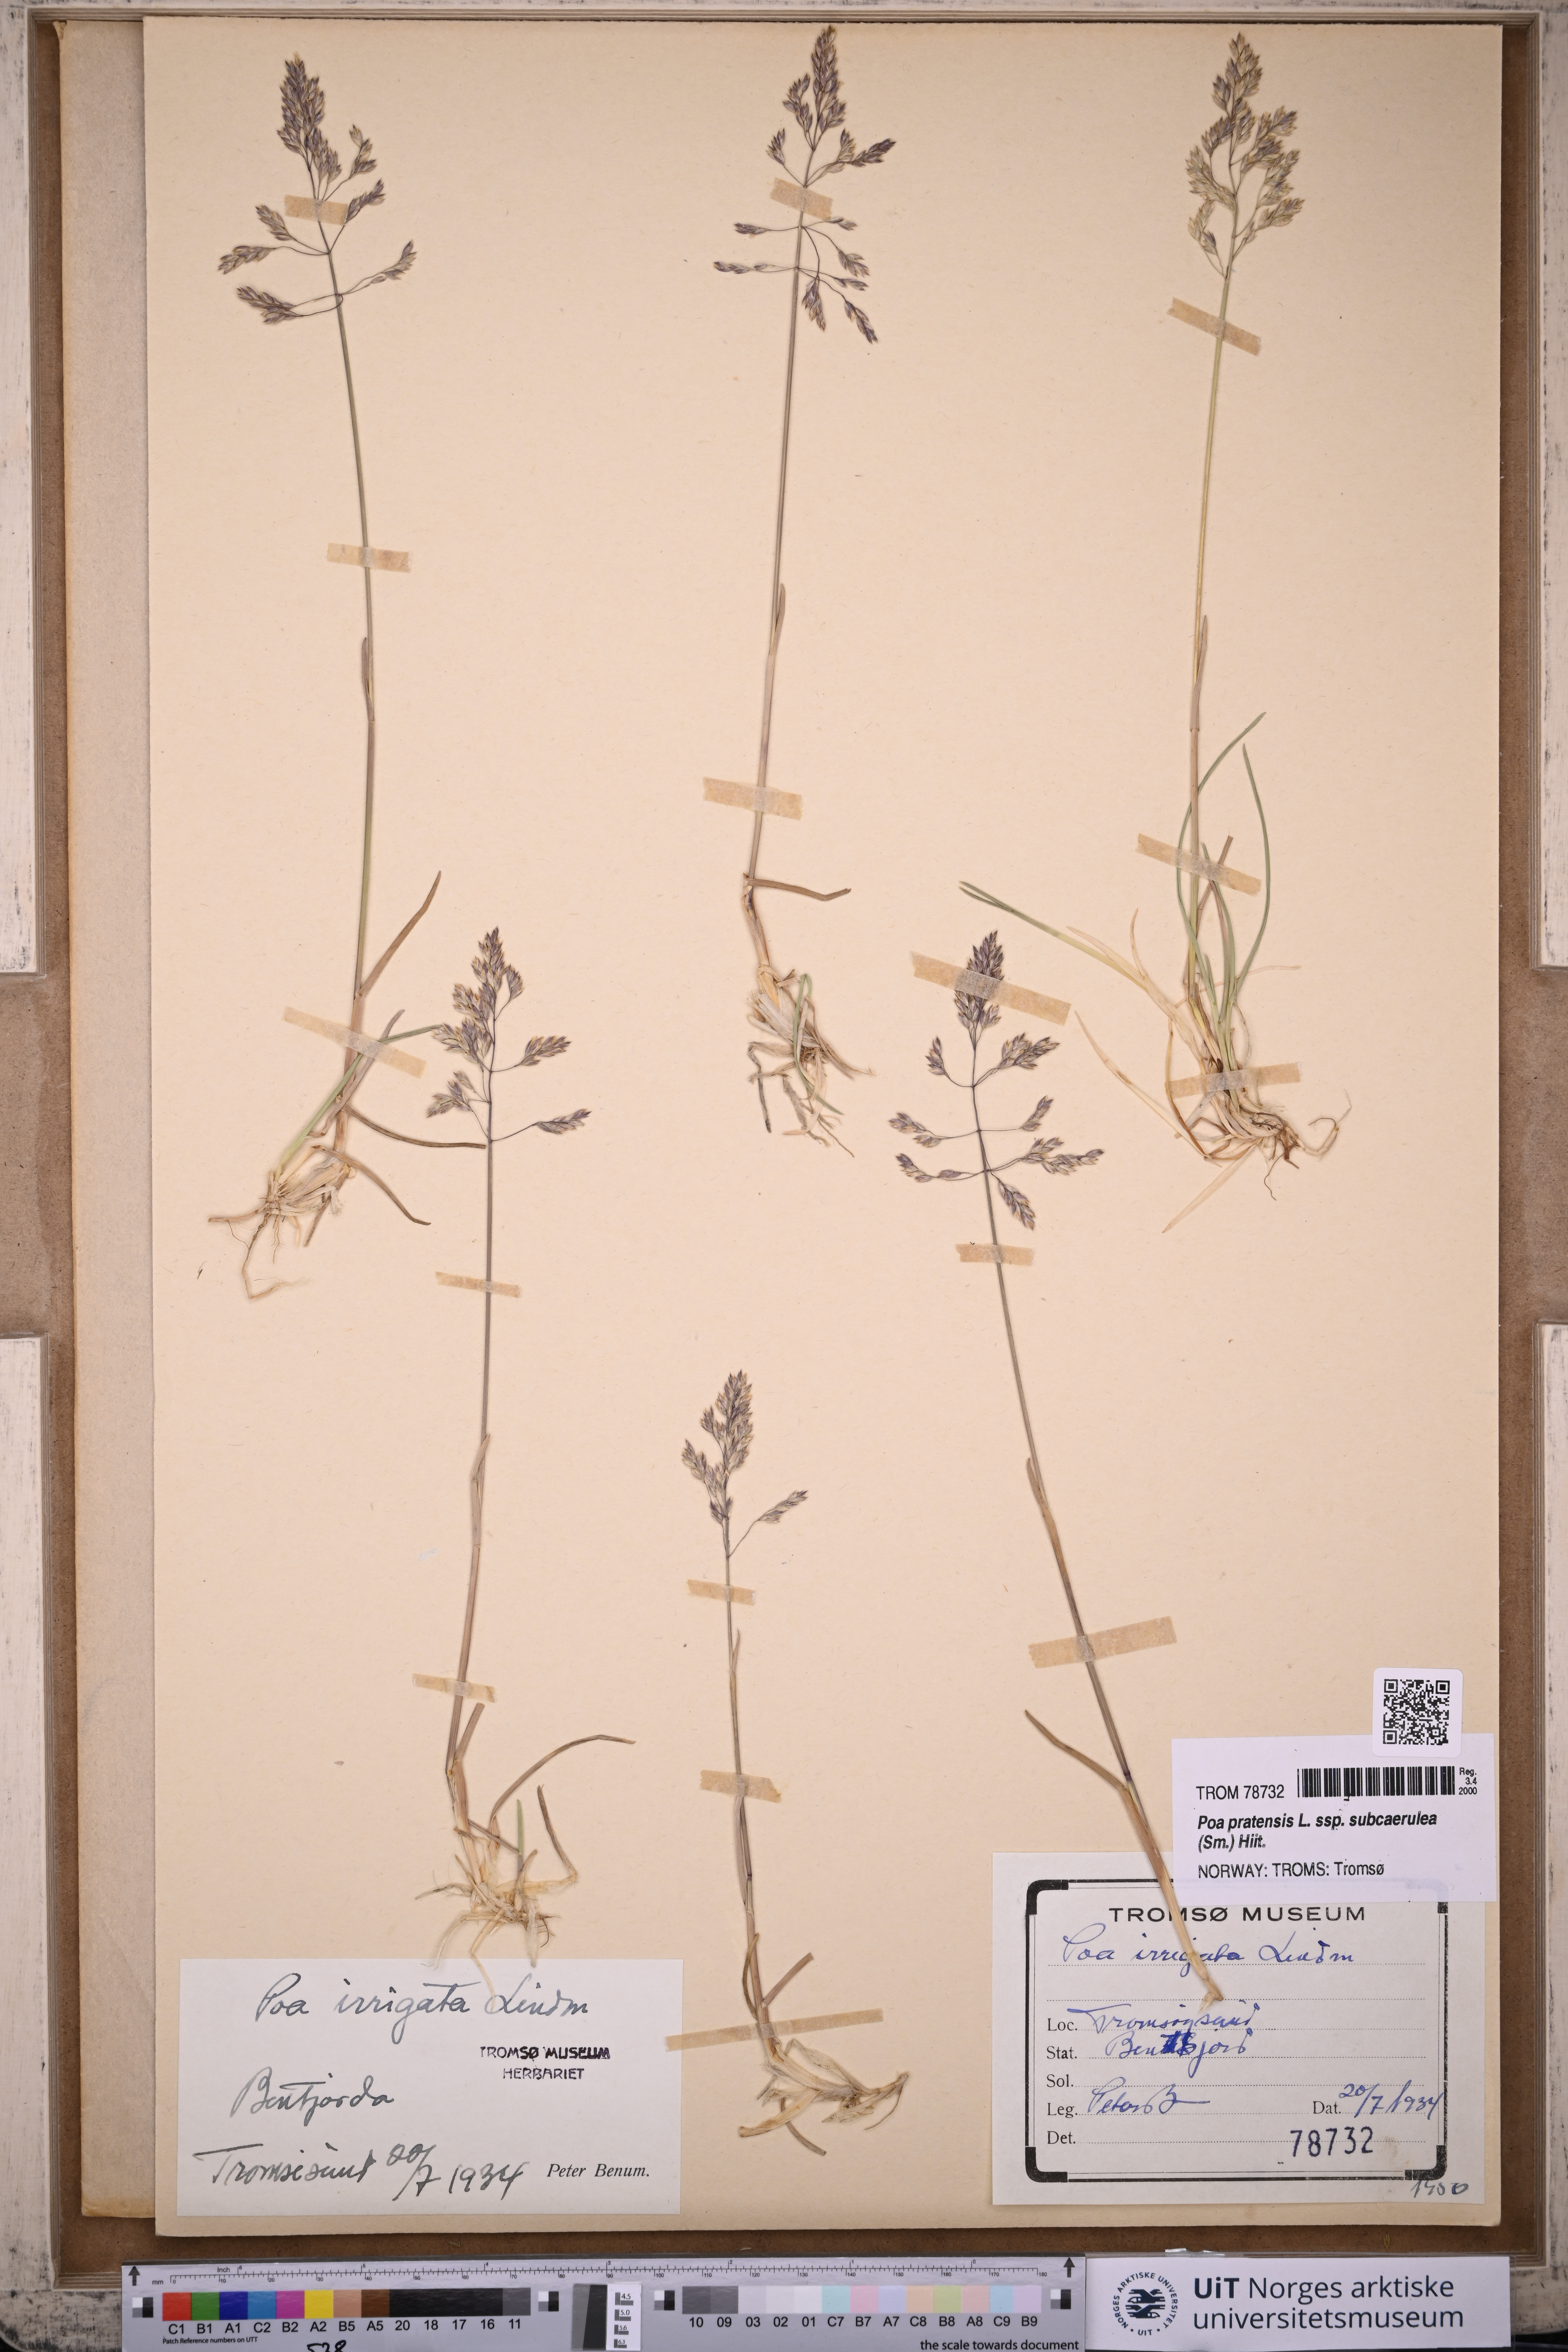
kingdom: Plantae
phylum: Tracheophyta
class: Liliopsida
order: Poales
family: Poaceae
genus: Poa
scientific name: Poa humilis
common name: Spreading meadow-grass
